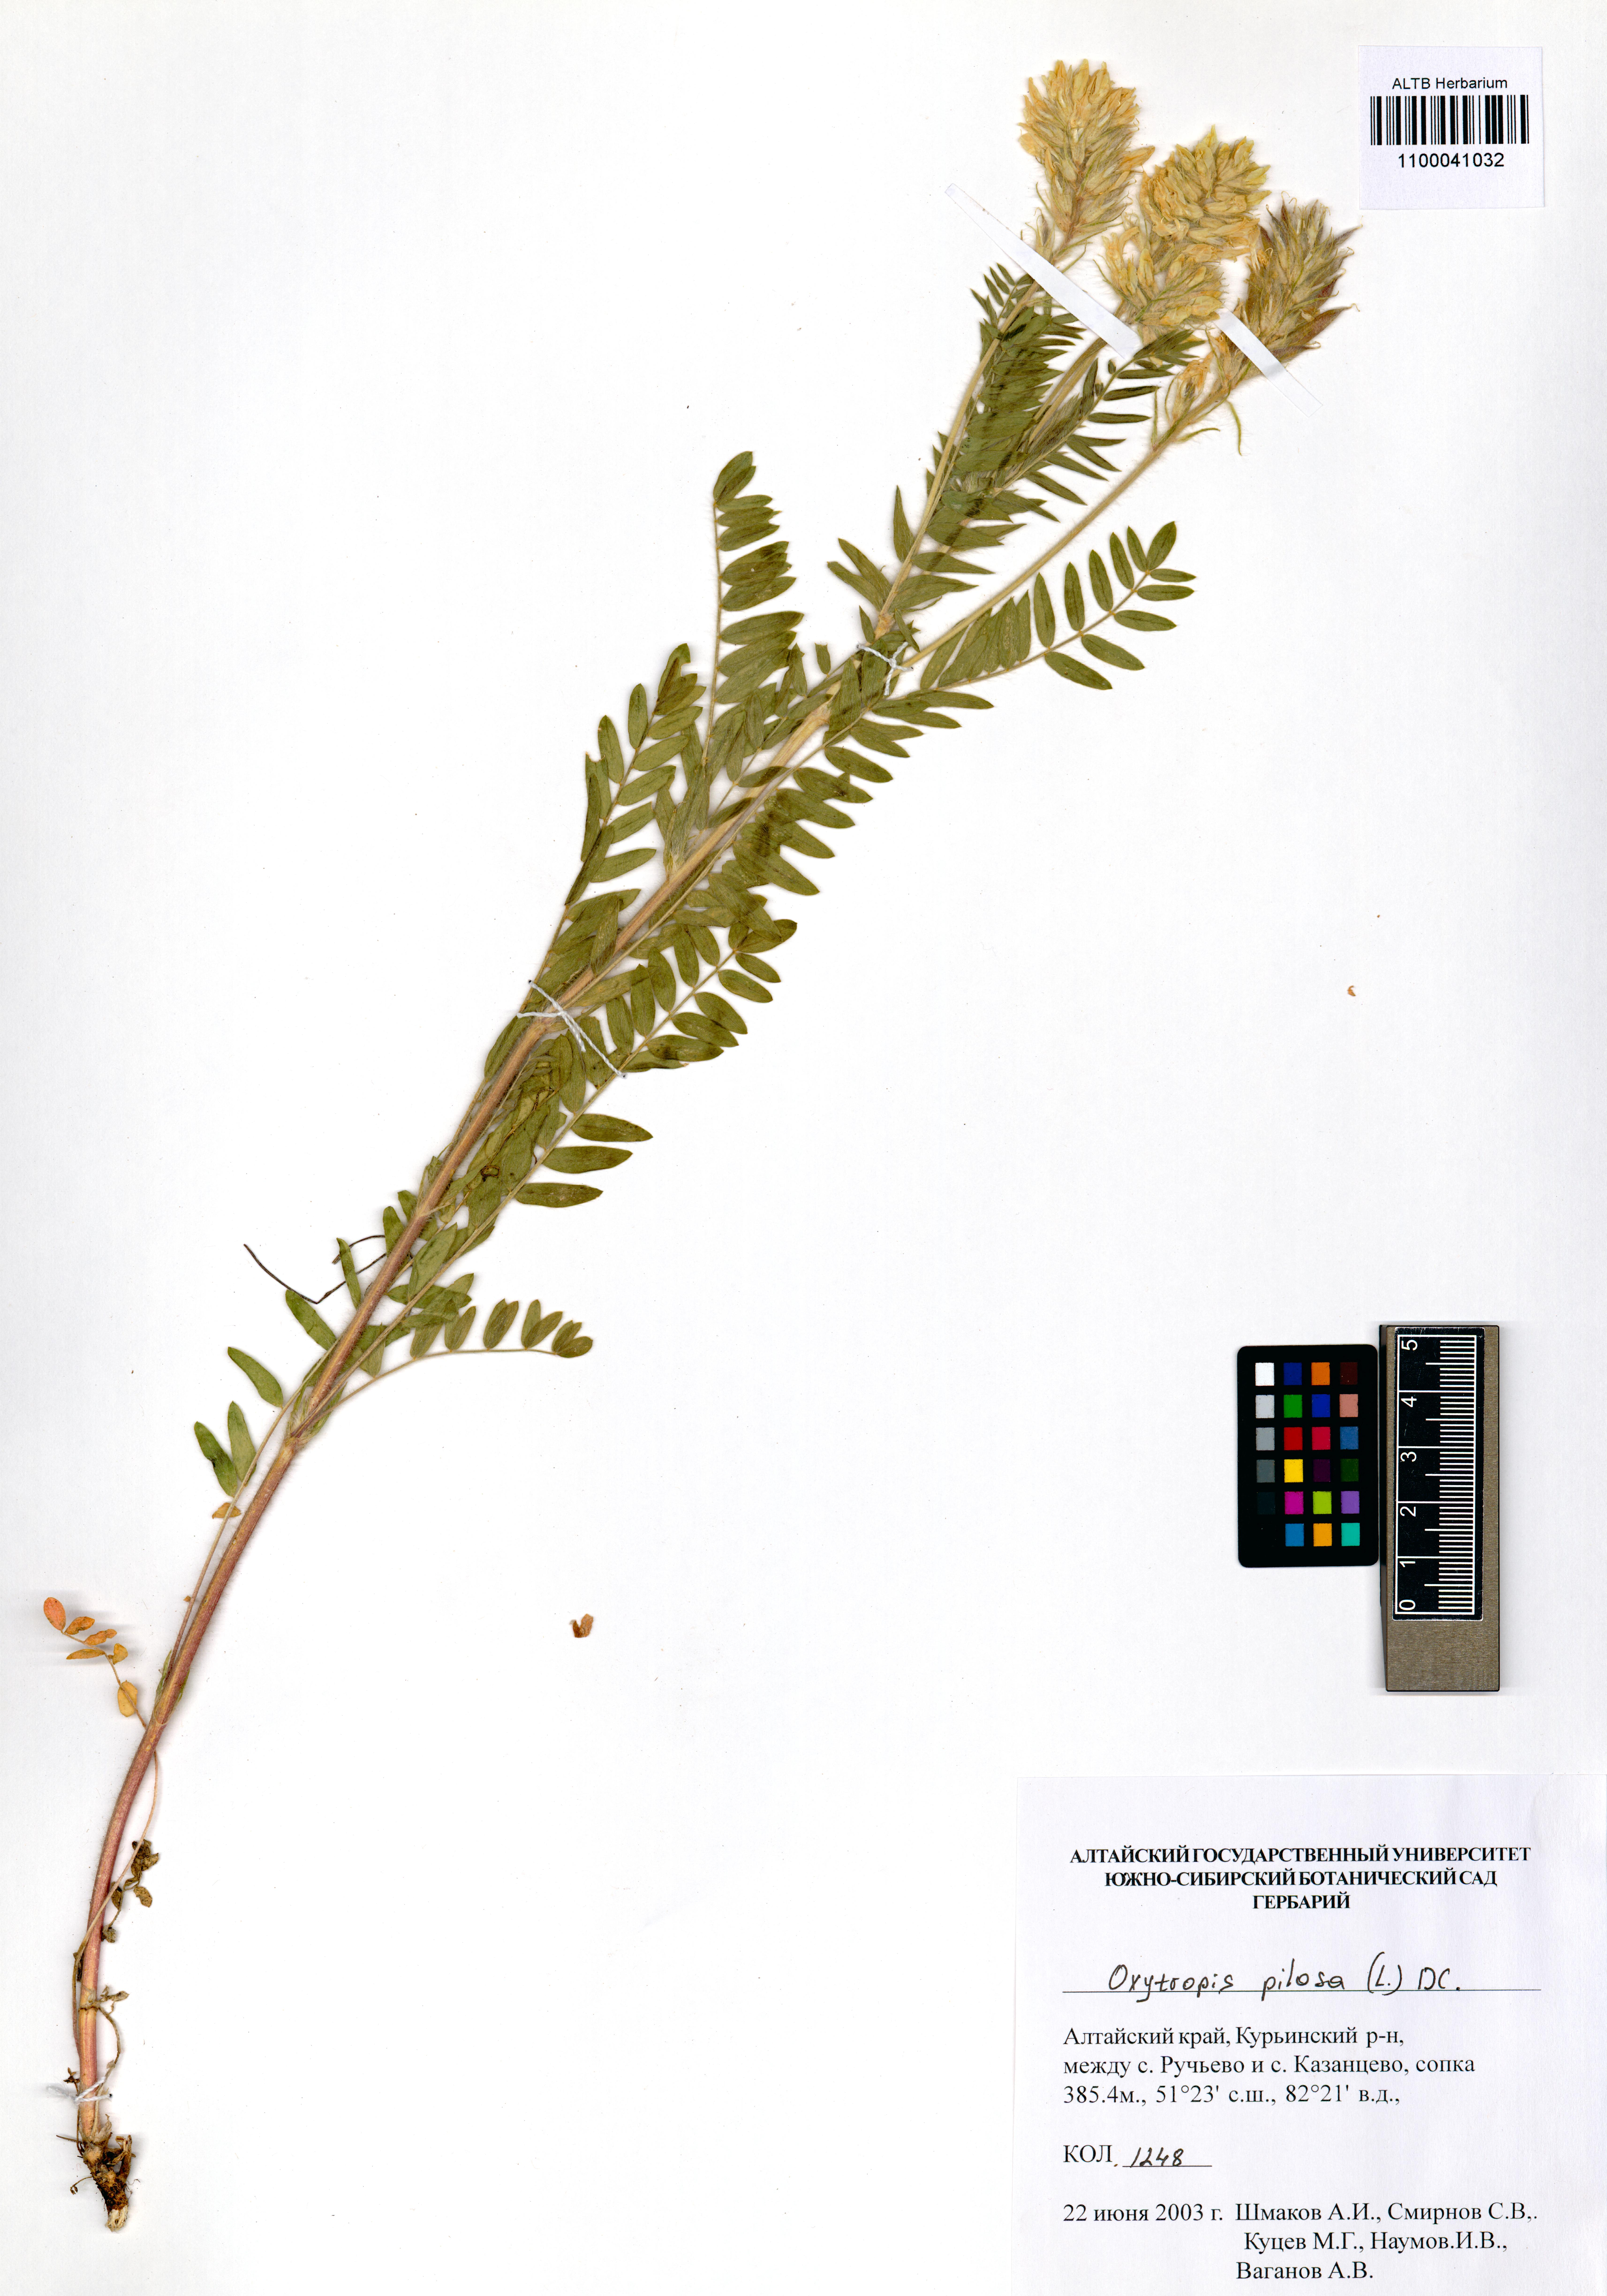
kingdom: Plantae
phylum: Tracheophyta
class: Magnoliopsida
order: Fabales
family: Fabaceae
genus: Oxytropis
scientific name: Oxytropis pilosa
